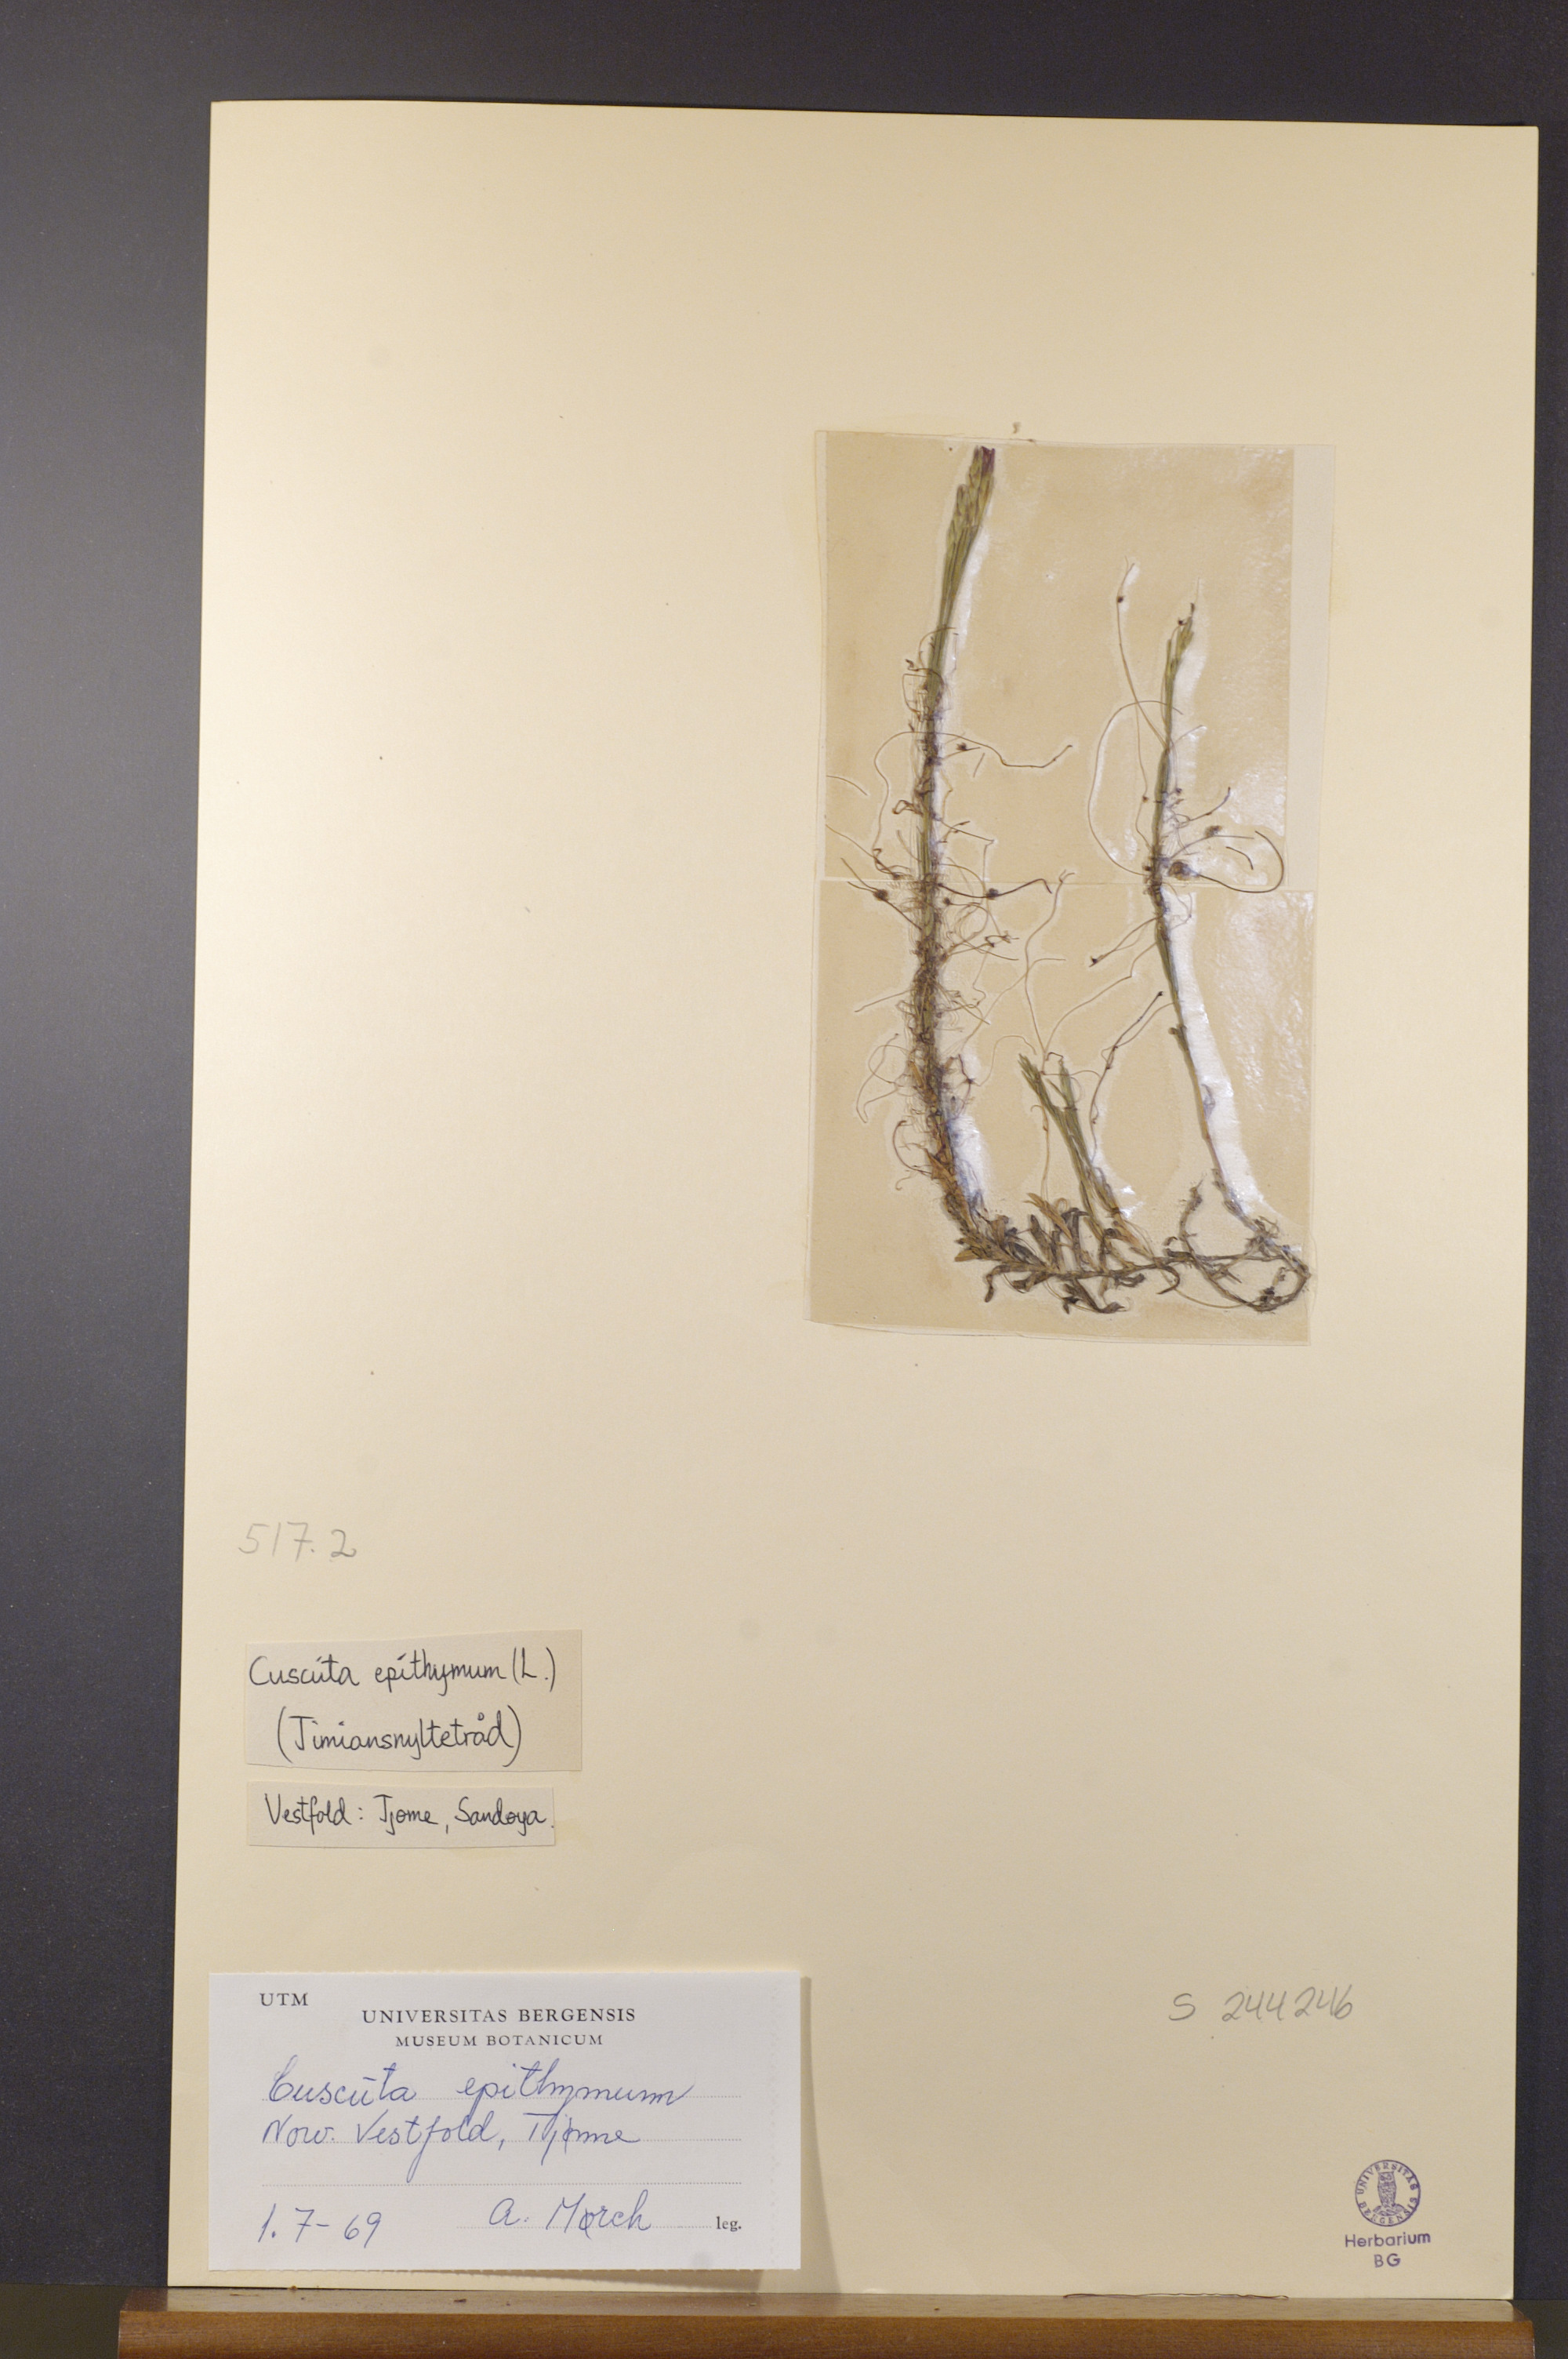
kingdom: Plantae
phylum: Tracheophyta
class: Magnoliopsida
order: Solanales
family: Convolvulaceae
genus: Cuscuta
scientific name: Cuscuta epithymum
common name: Clover dodder
